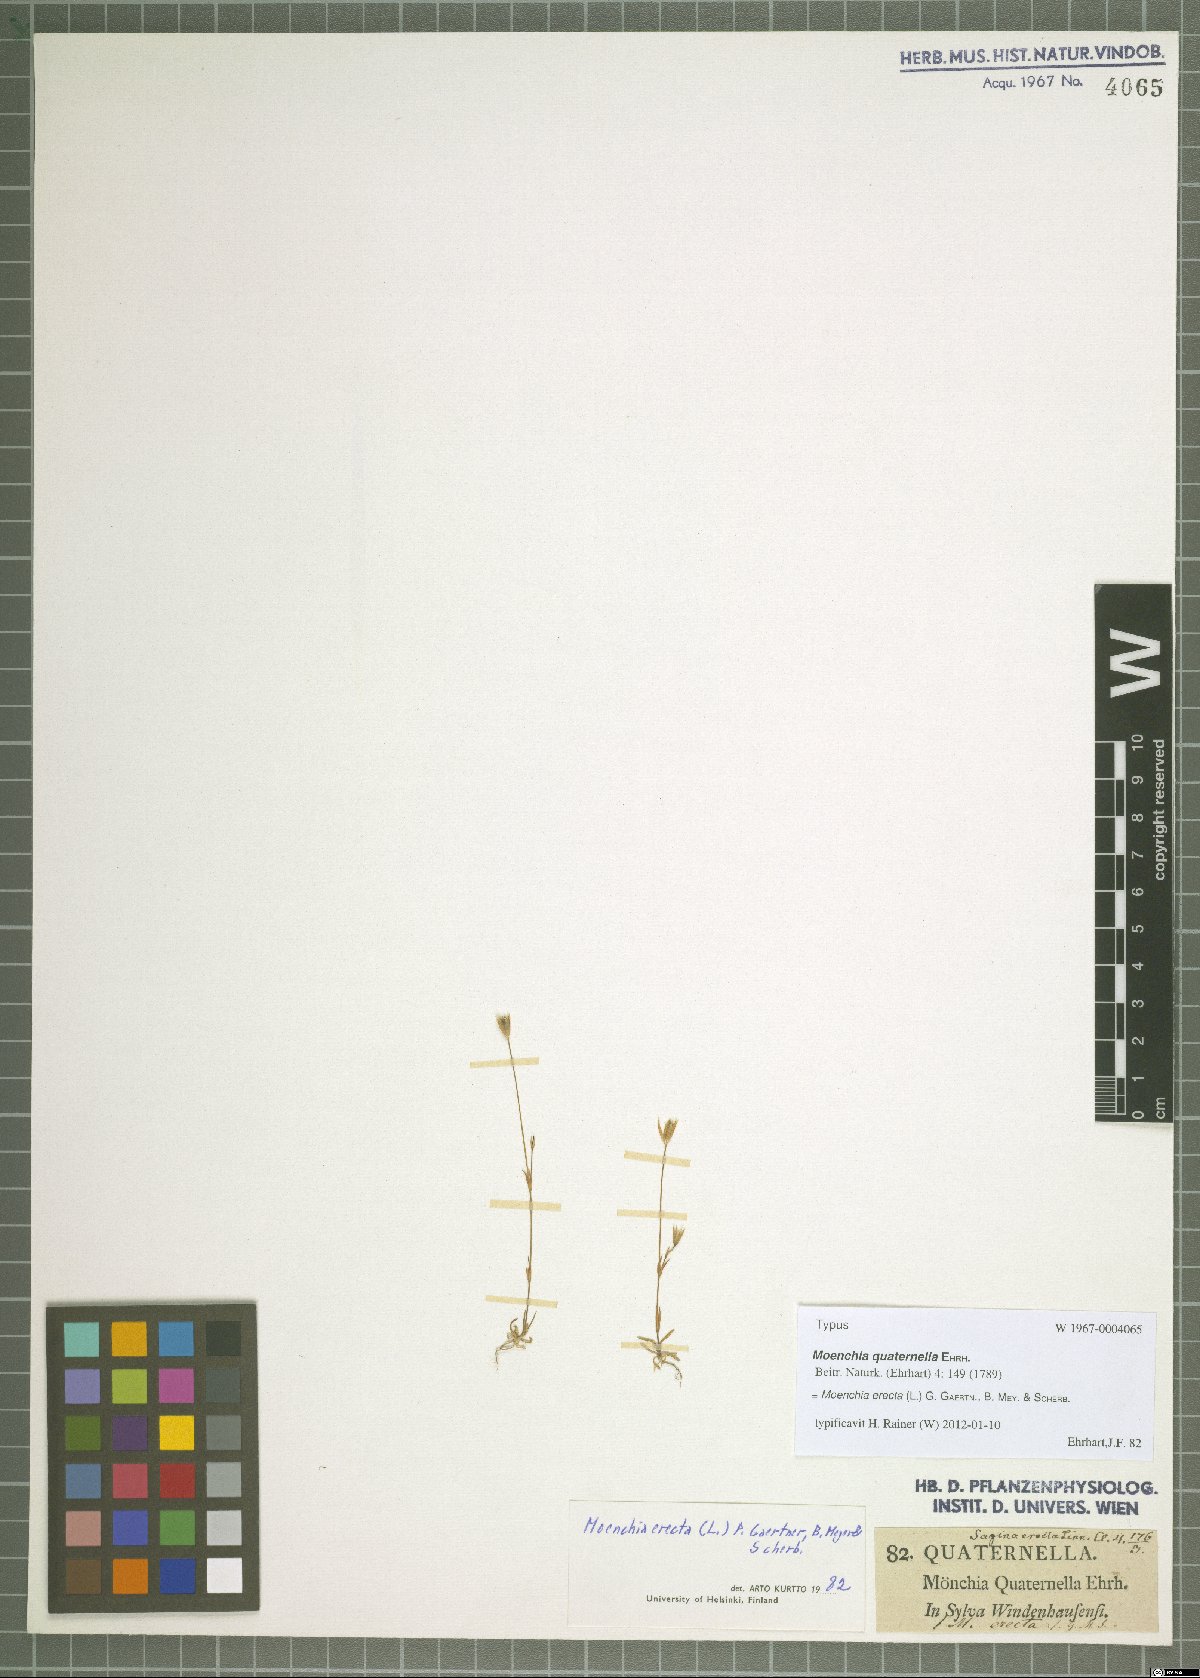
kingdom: Plantae
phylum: Tracheophyta
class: Magnoliopsida
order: Caryophyllales
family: Caryophyllaceae
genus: Moenchia
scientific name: Moenchia erecta
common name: Upright chickweed
